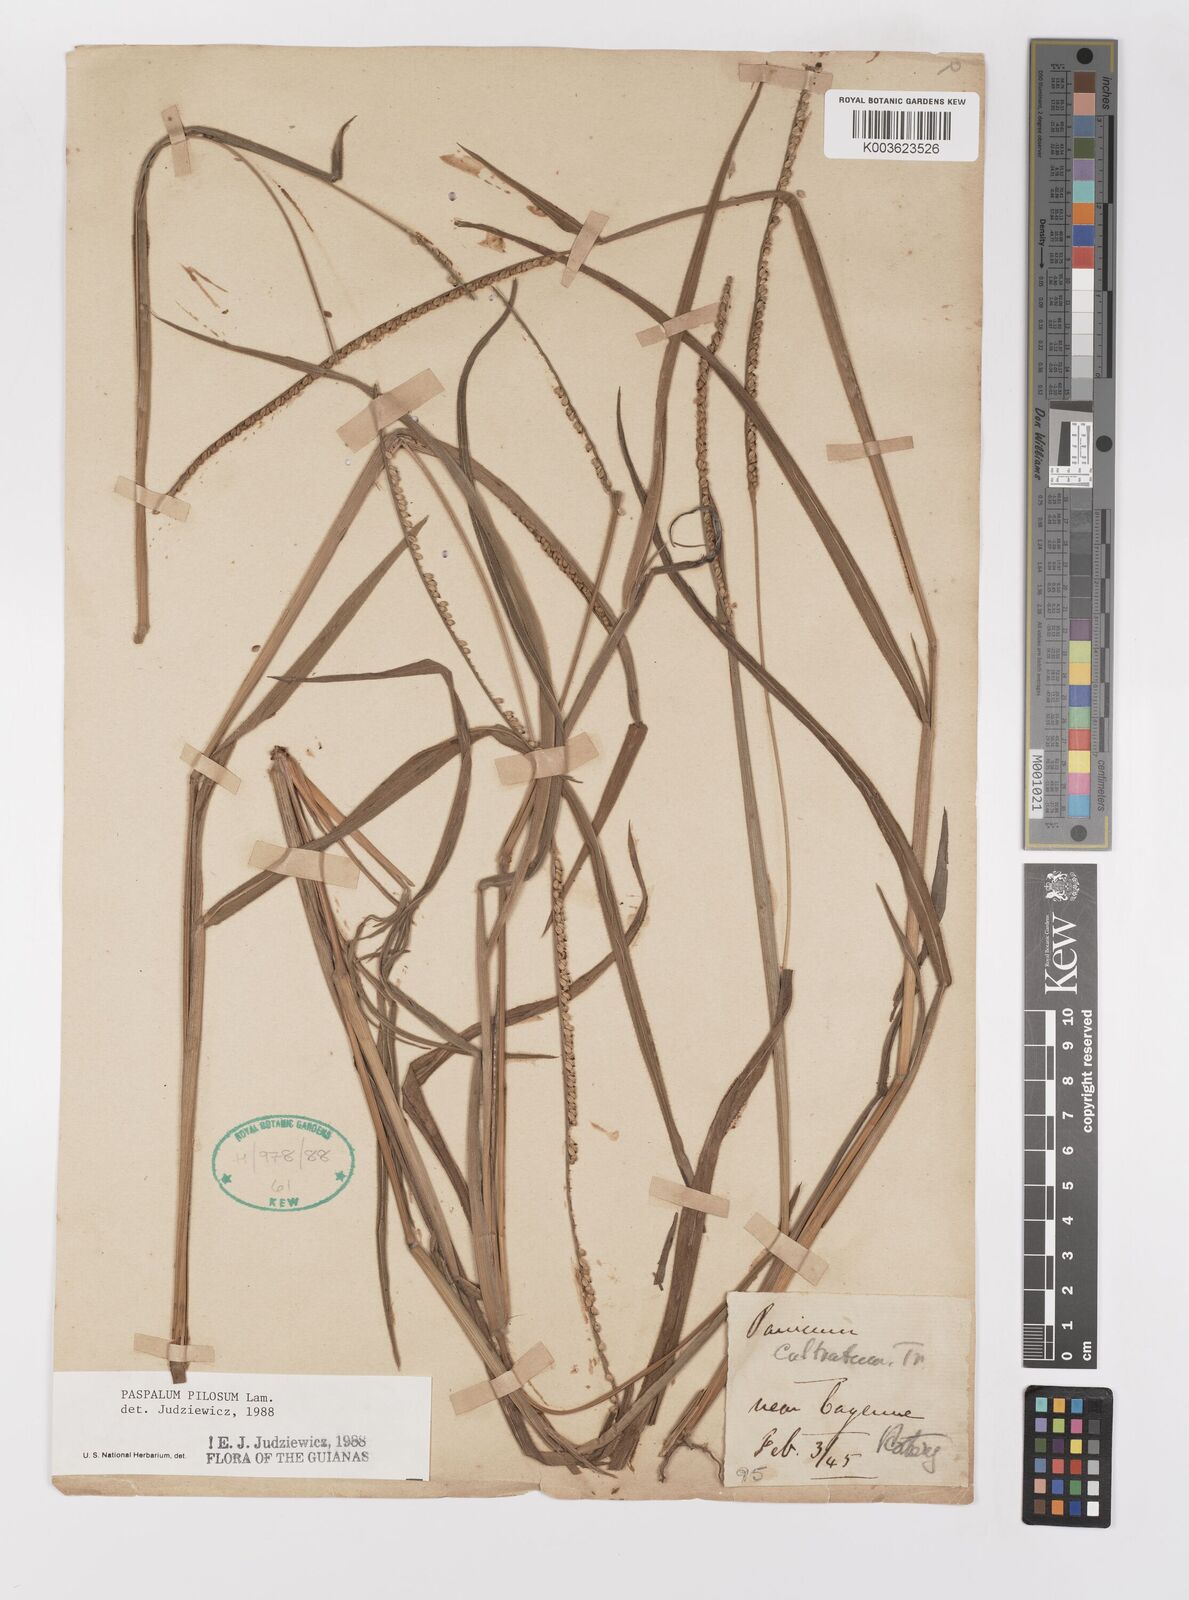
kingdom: Plantae
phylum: Tracheophyta
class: Liliopsida
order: Poales
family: Poaceae
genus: Paspalum
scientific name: Paspalum pilosum
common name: Crowngrass
